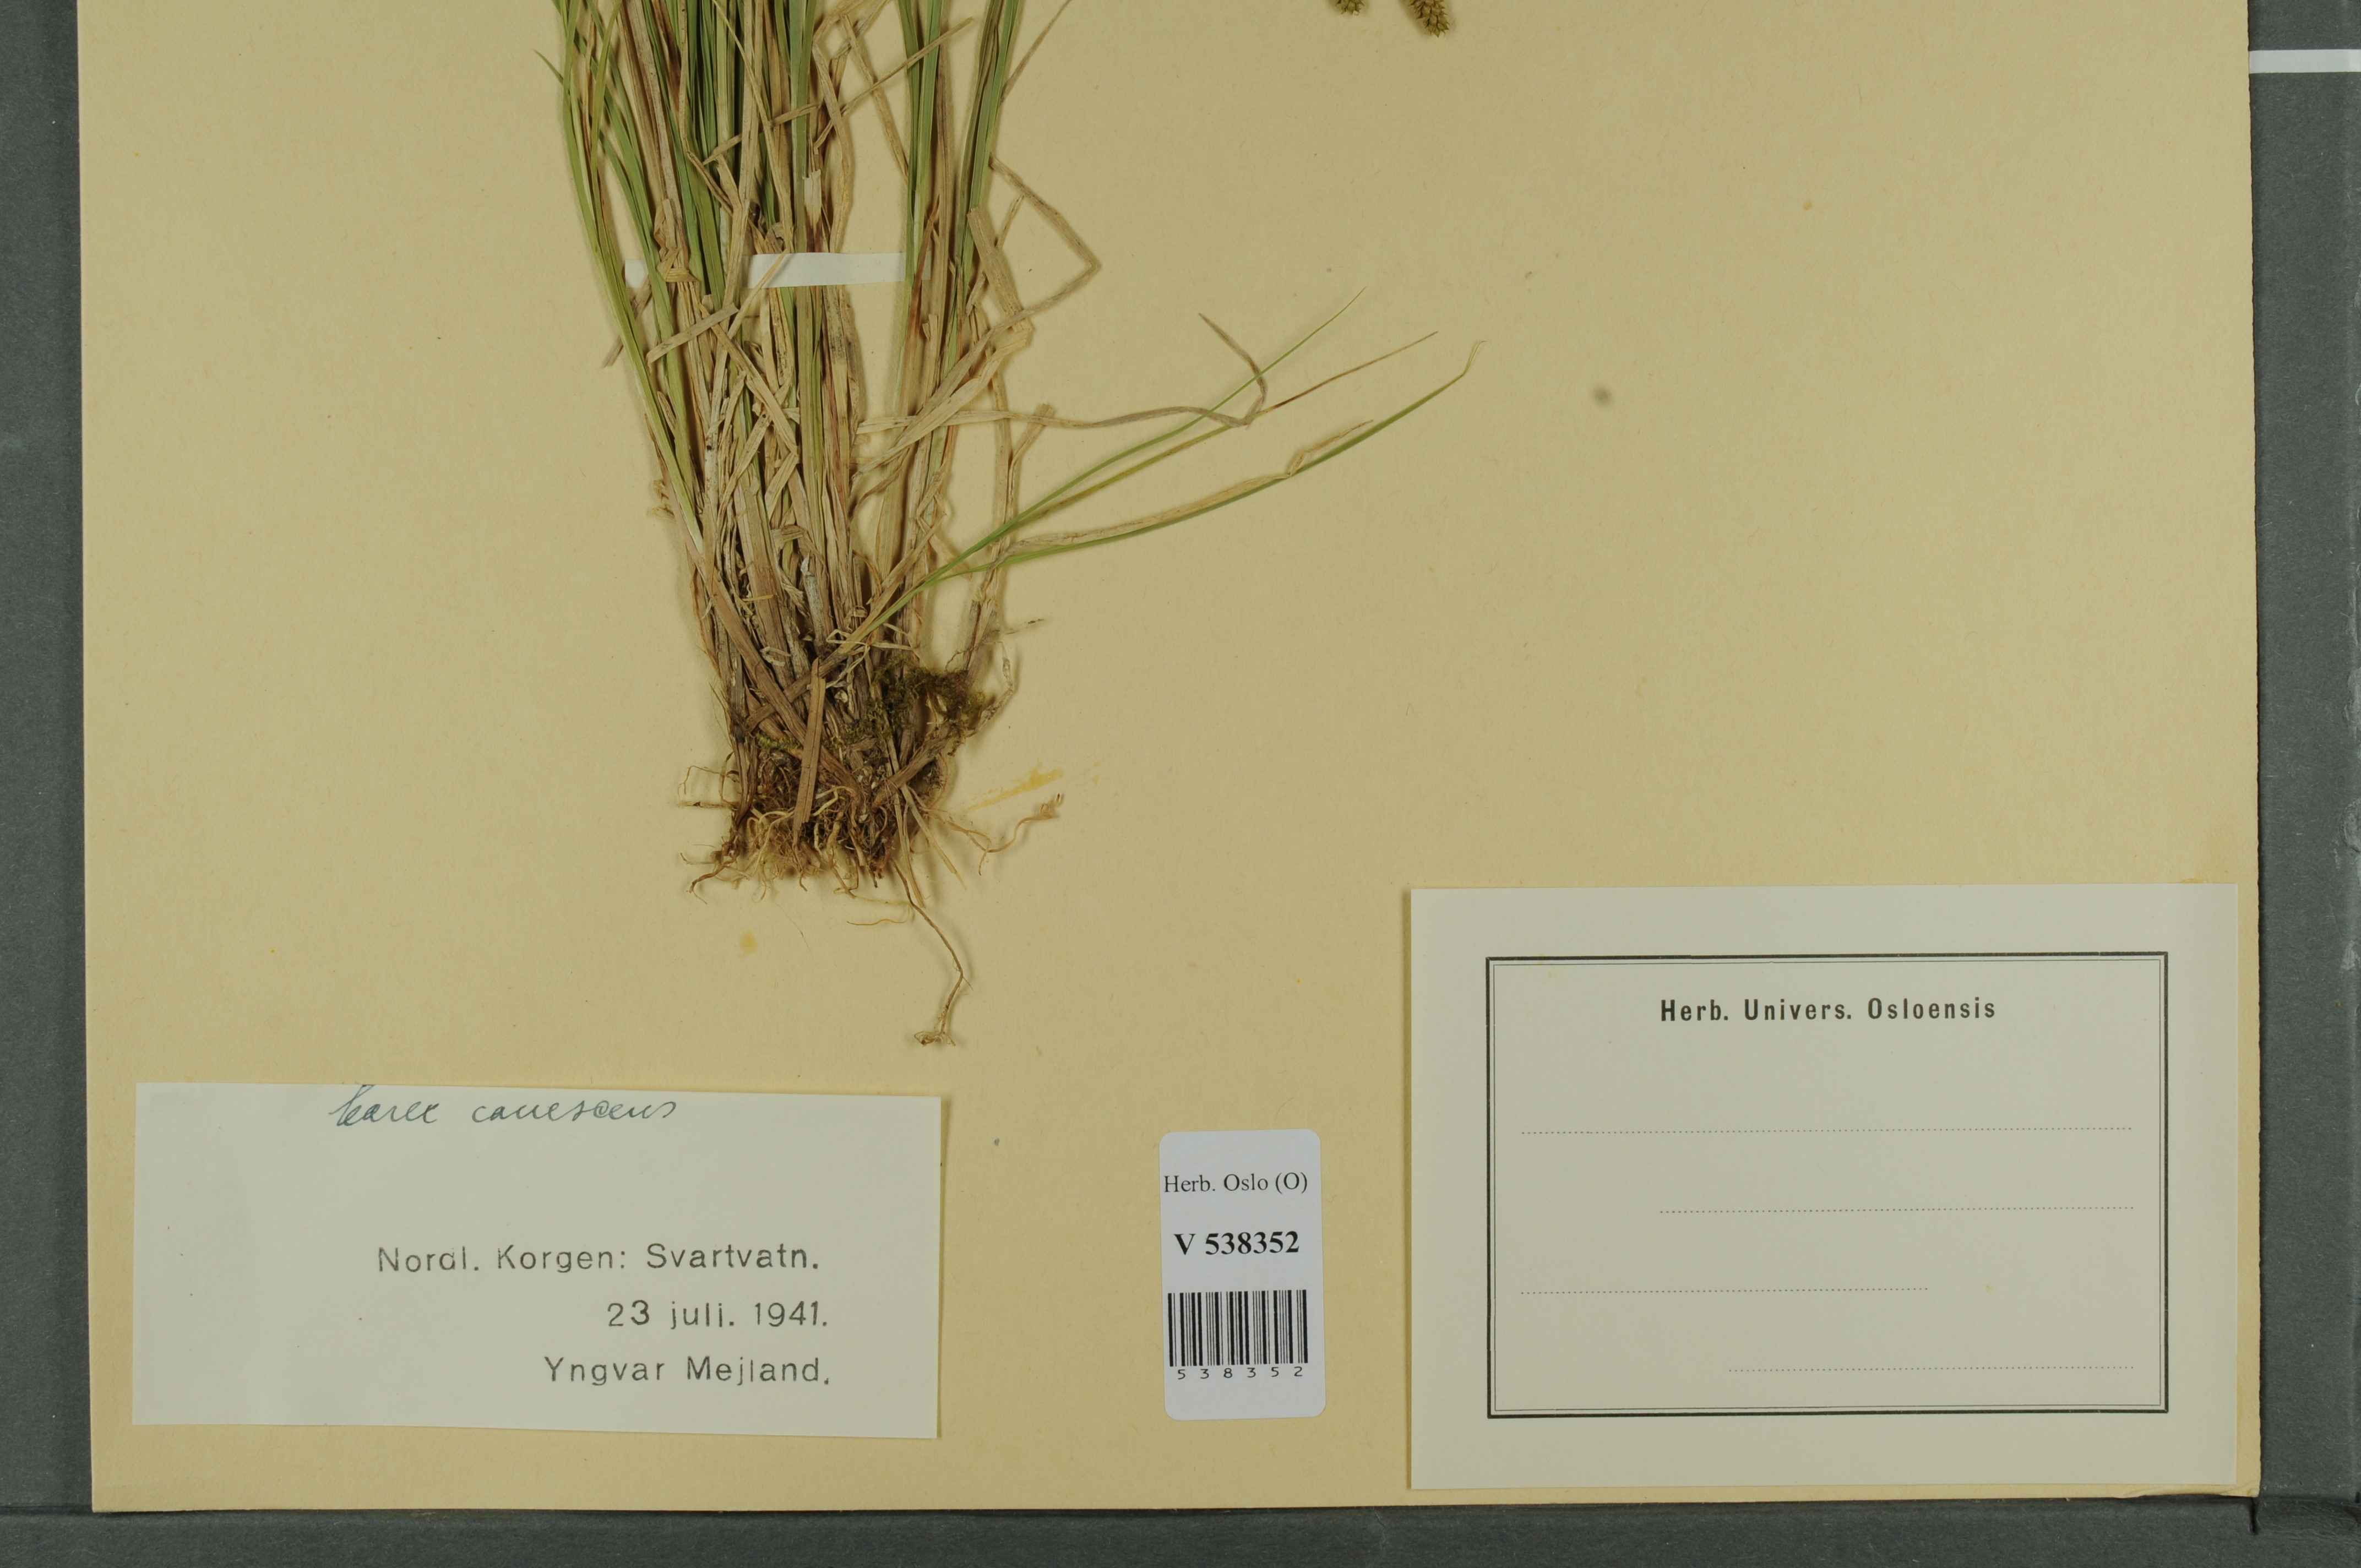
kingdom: Plantae
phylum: Tracheophyta
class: Liliopsida
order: Poales
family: Cyperaceae
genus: Carex
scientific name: Carex canescens
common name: White sedge
